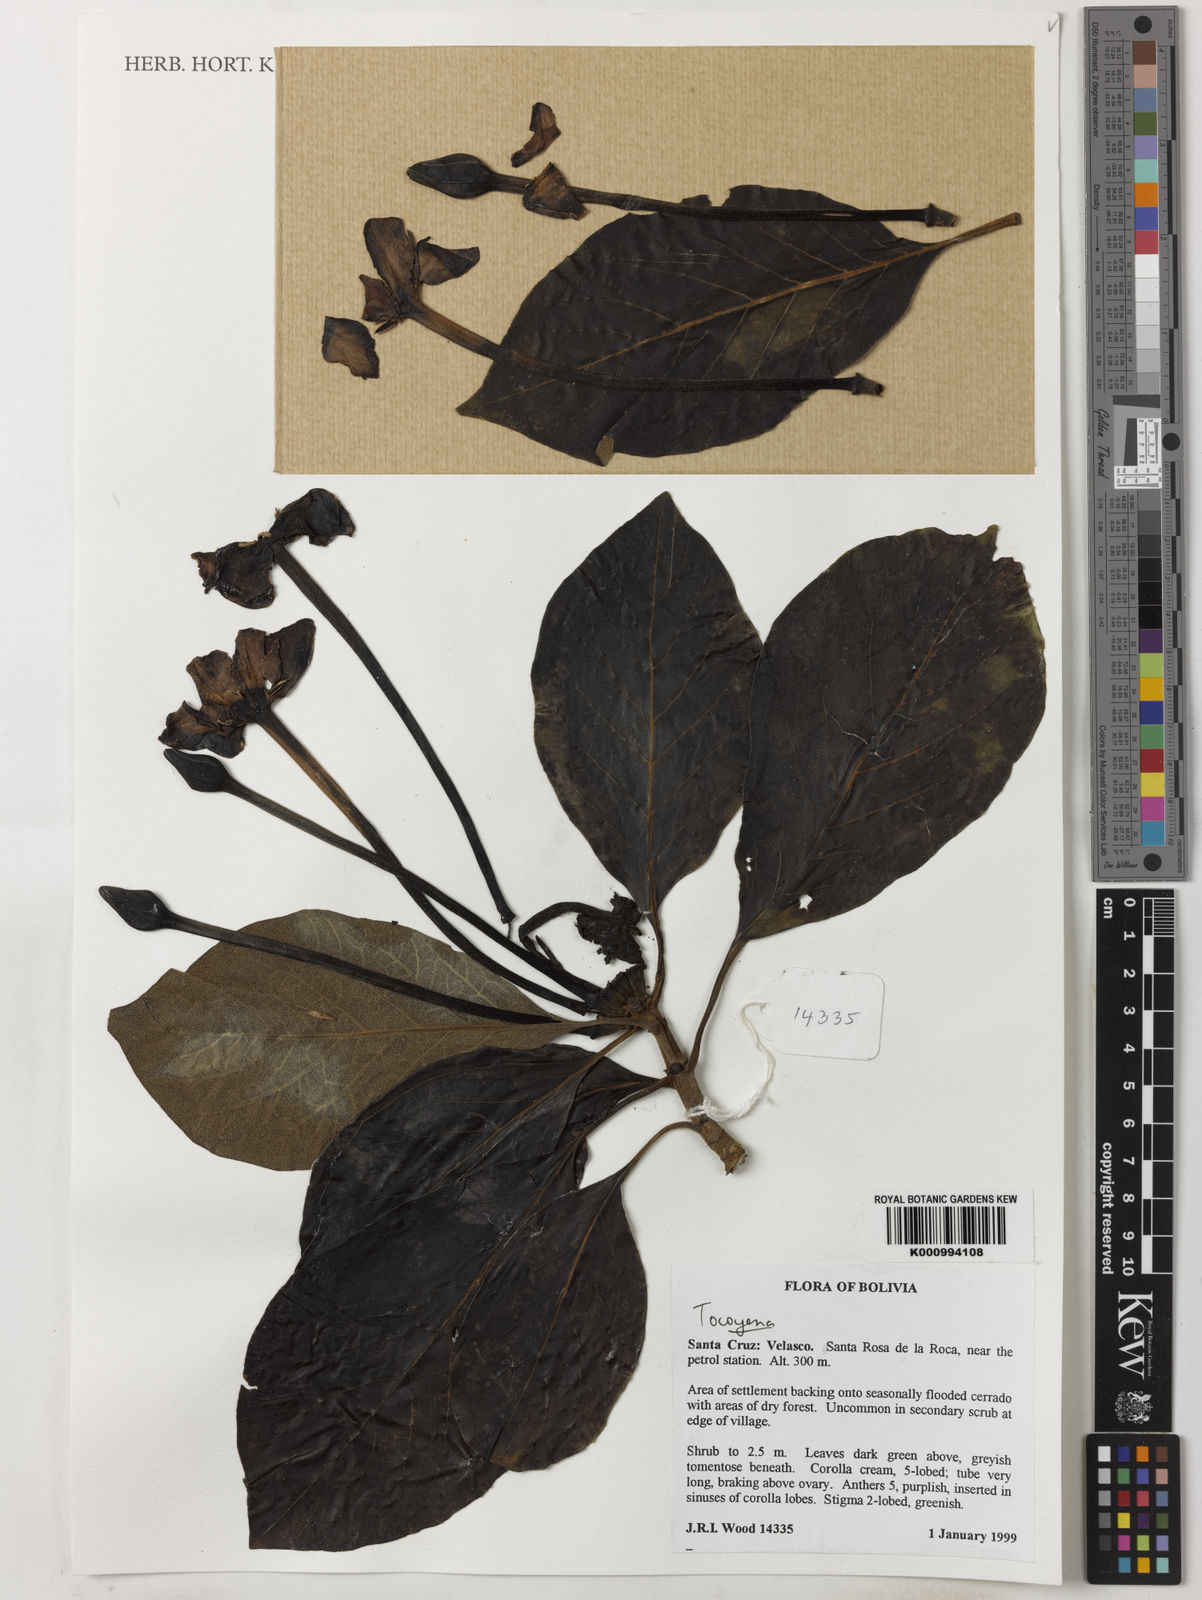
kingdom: Plantae
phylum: Tracheophyta
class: Magnoliopsida
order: Gentianales
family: Rubiaceae
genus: Tocoyena
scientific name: Tocoyena
